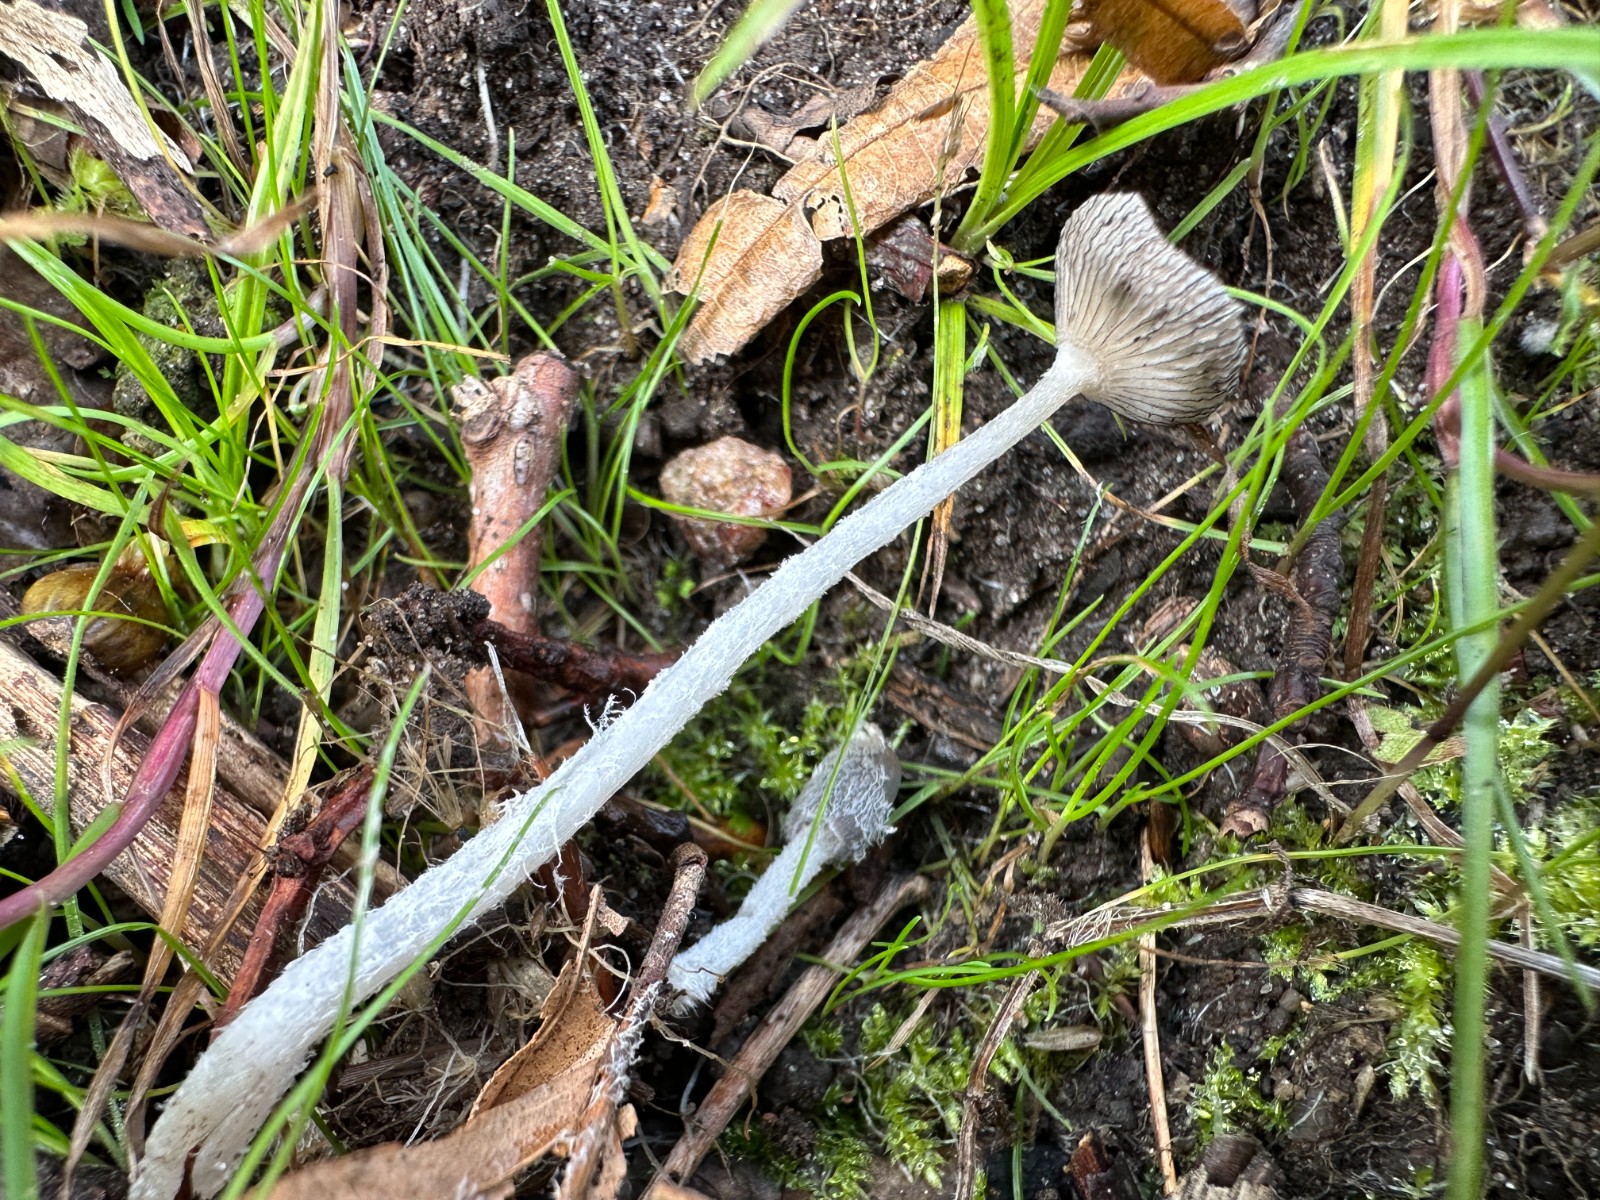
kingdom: Fungi
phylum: Basidiomycota
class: Agaricomycetes
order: Agaricales
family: Psathyrellaceae
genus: Coprinopsis
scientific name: Coprinopsis lagopus
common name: dunstokket blækhat
